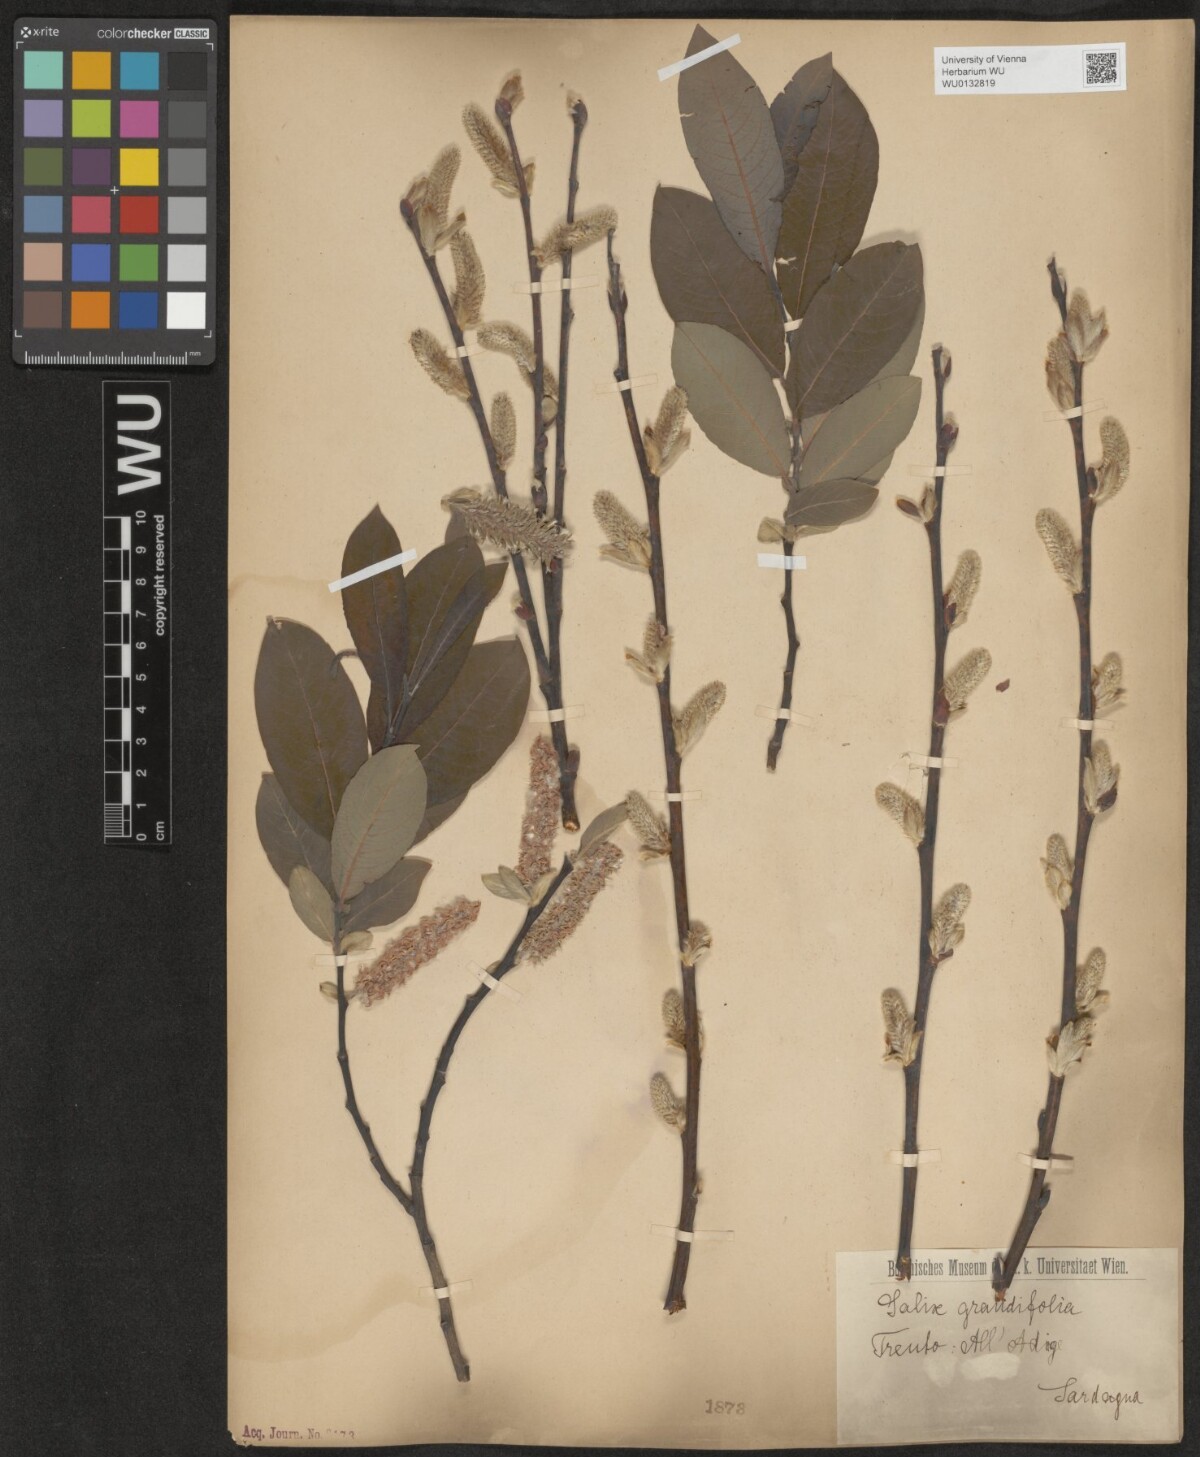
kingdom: Plantae
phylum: Tracheophyta
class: Magnoliopsida
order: Malpighiales
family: Salicaceae
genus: Salix
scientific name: Salix appendiculata
